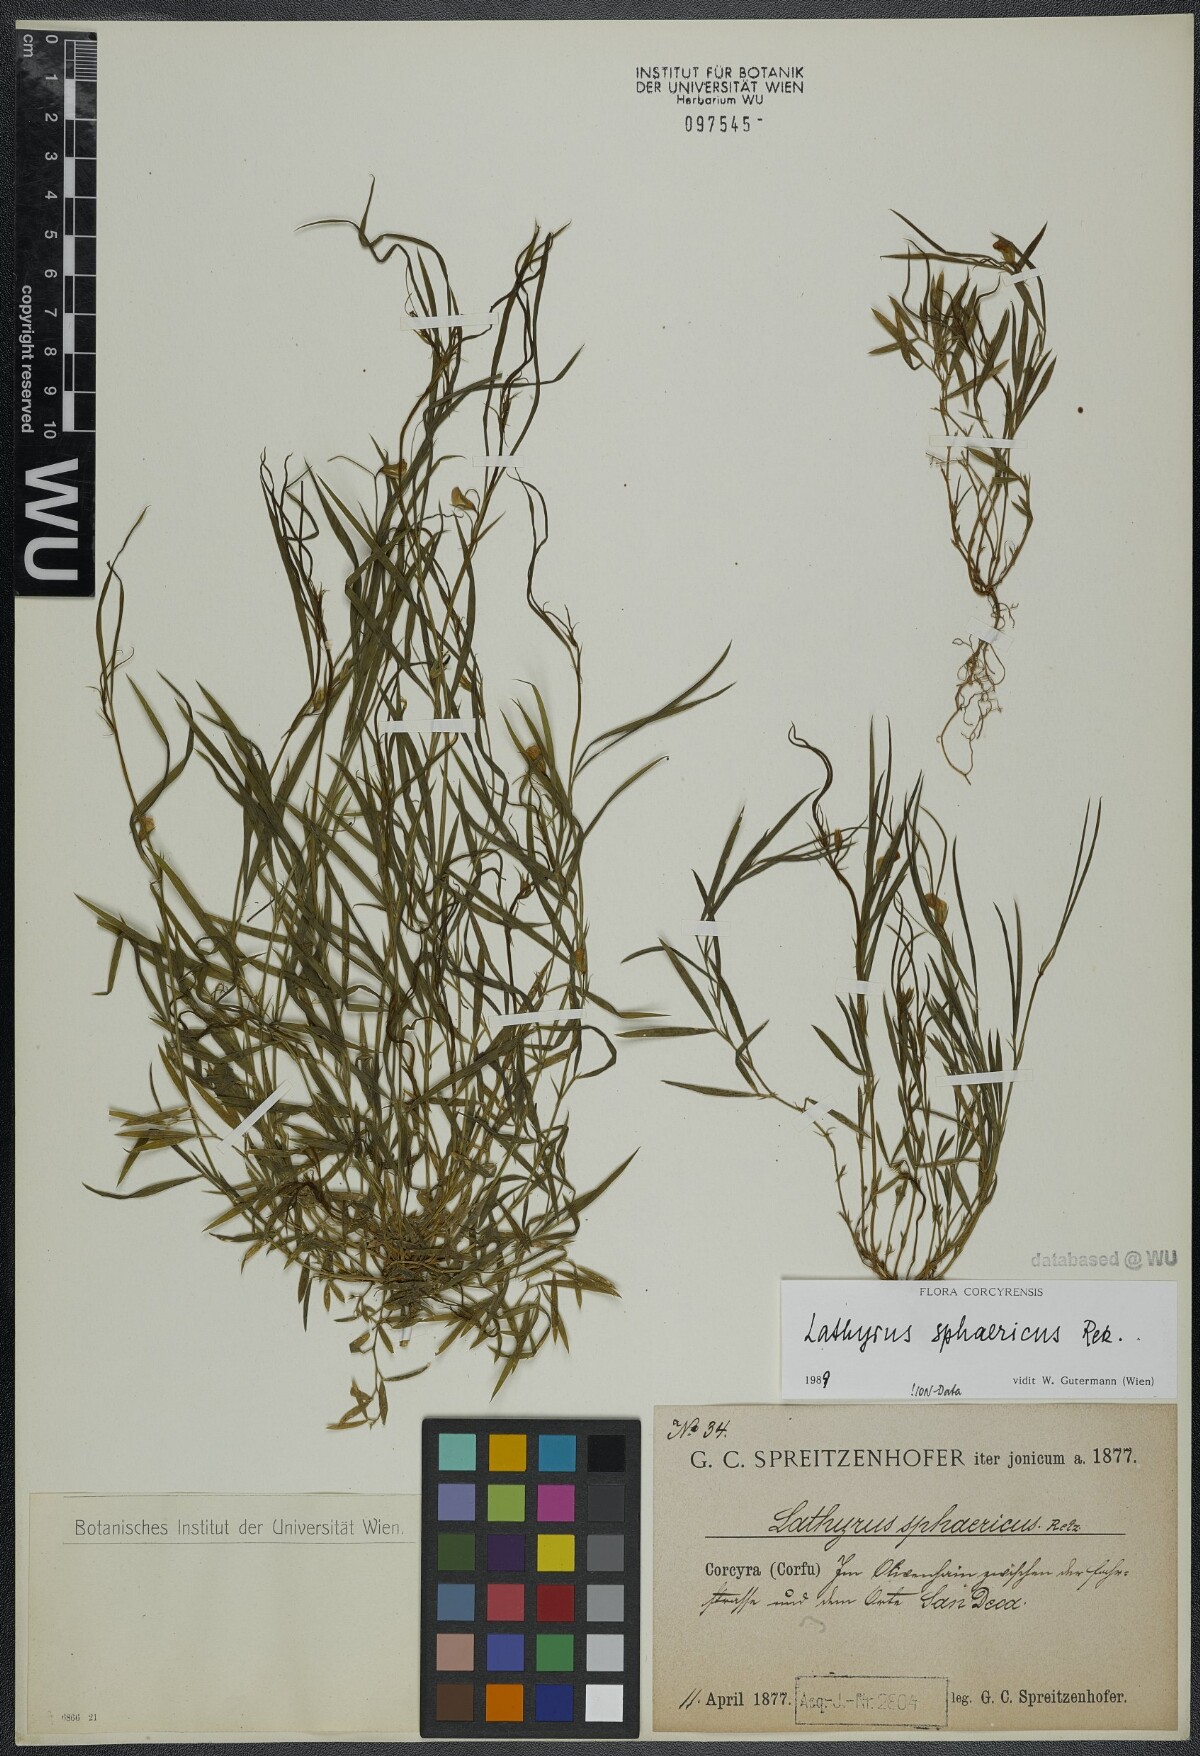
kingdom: Plantae
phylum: Tracheophyta
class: Magnoliopsida
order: Fabales
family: Fabaceae
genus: Lathyrus
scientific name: Lathyrus sphaericus
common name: Grass pea
